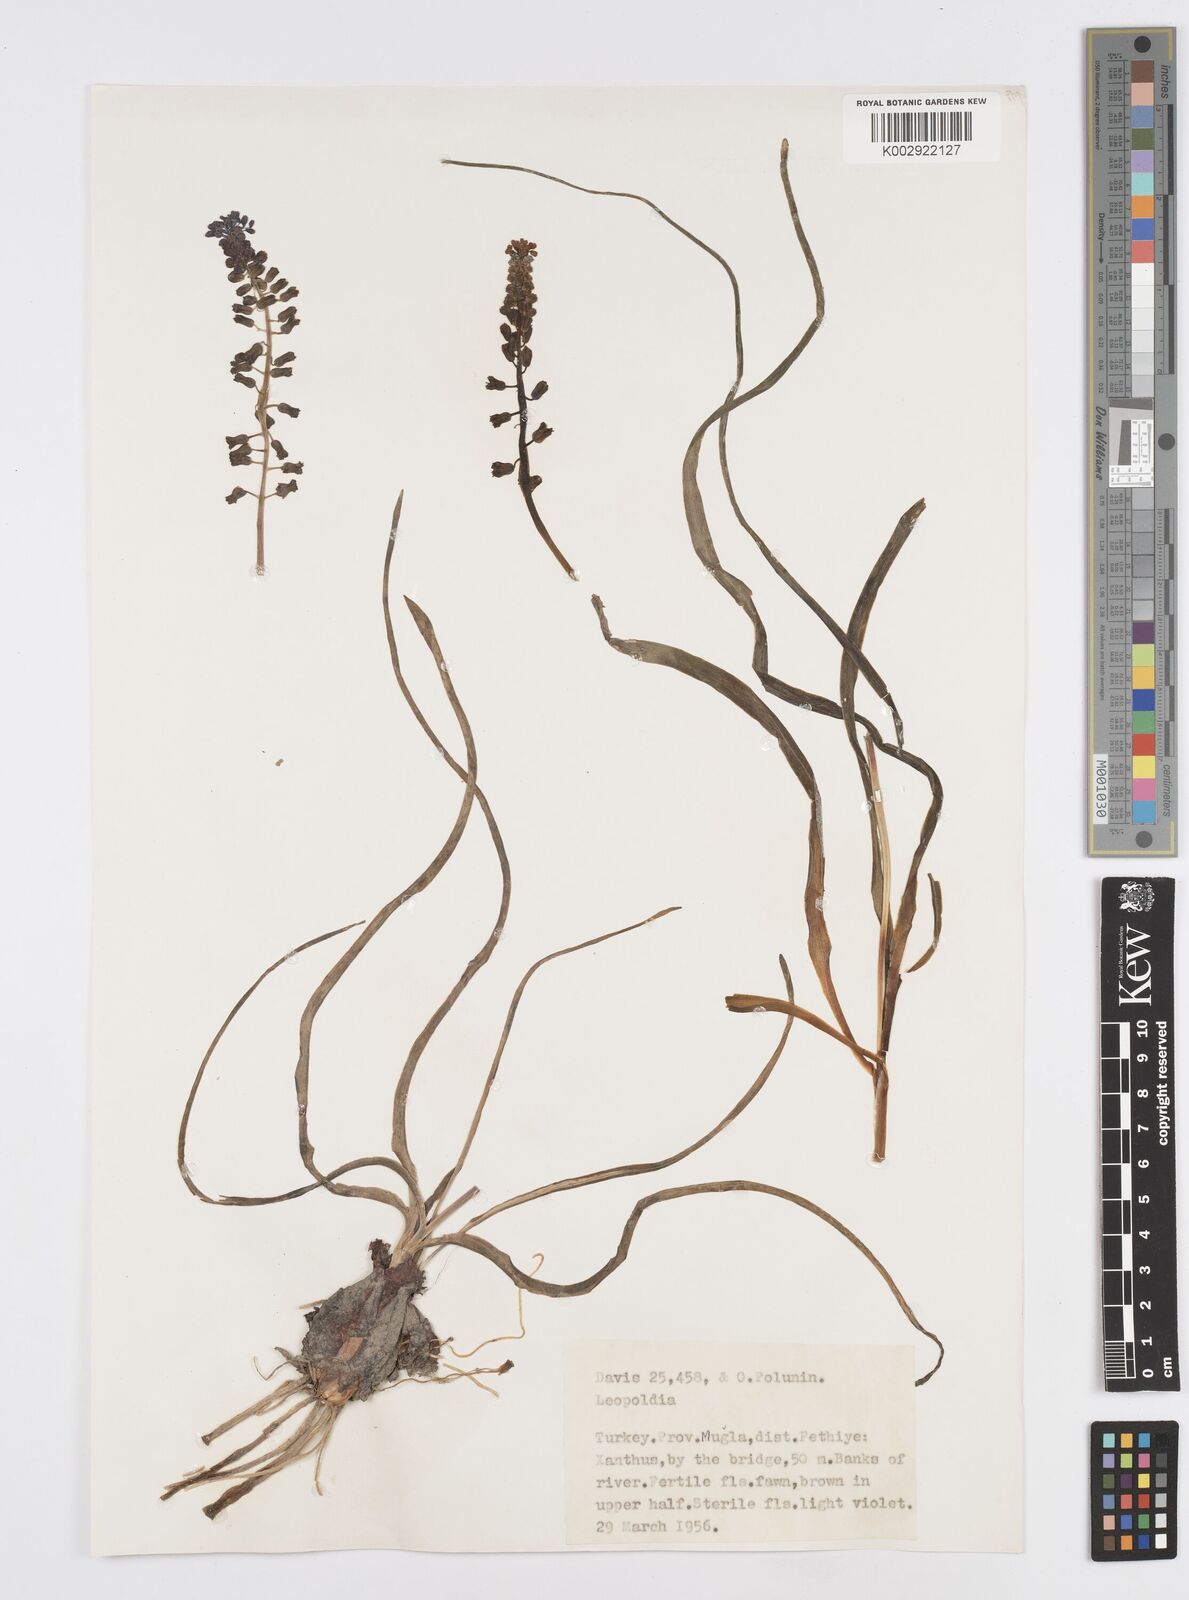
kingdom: Plantae
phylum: Tracheophyta
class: Liliopsida
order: Asparagales
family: Asparagaceae
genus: Muscari
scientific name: Muscari comosum
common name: Tassel hyacinth
